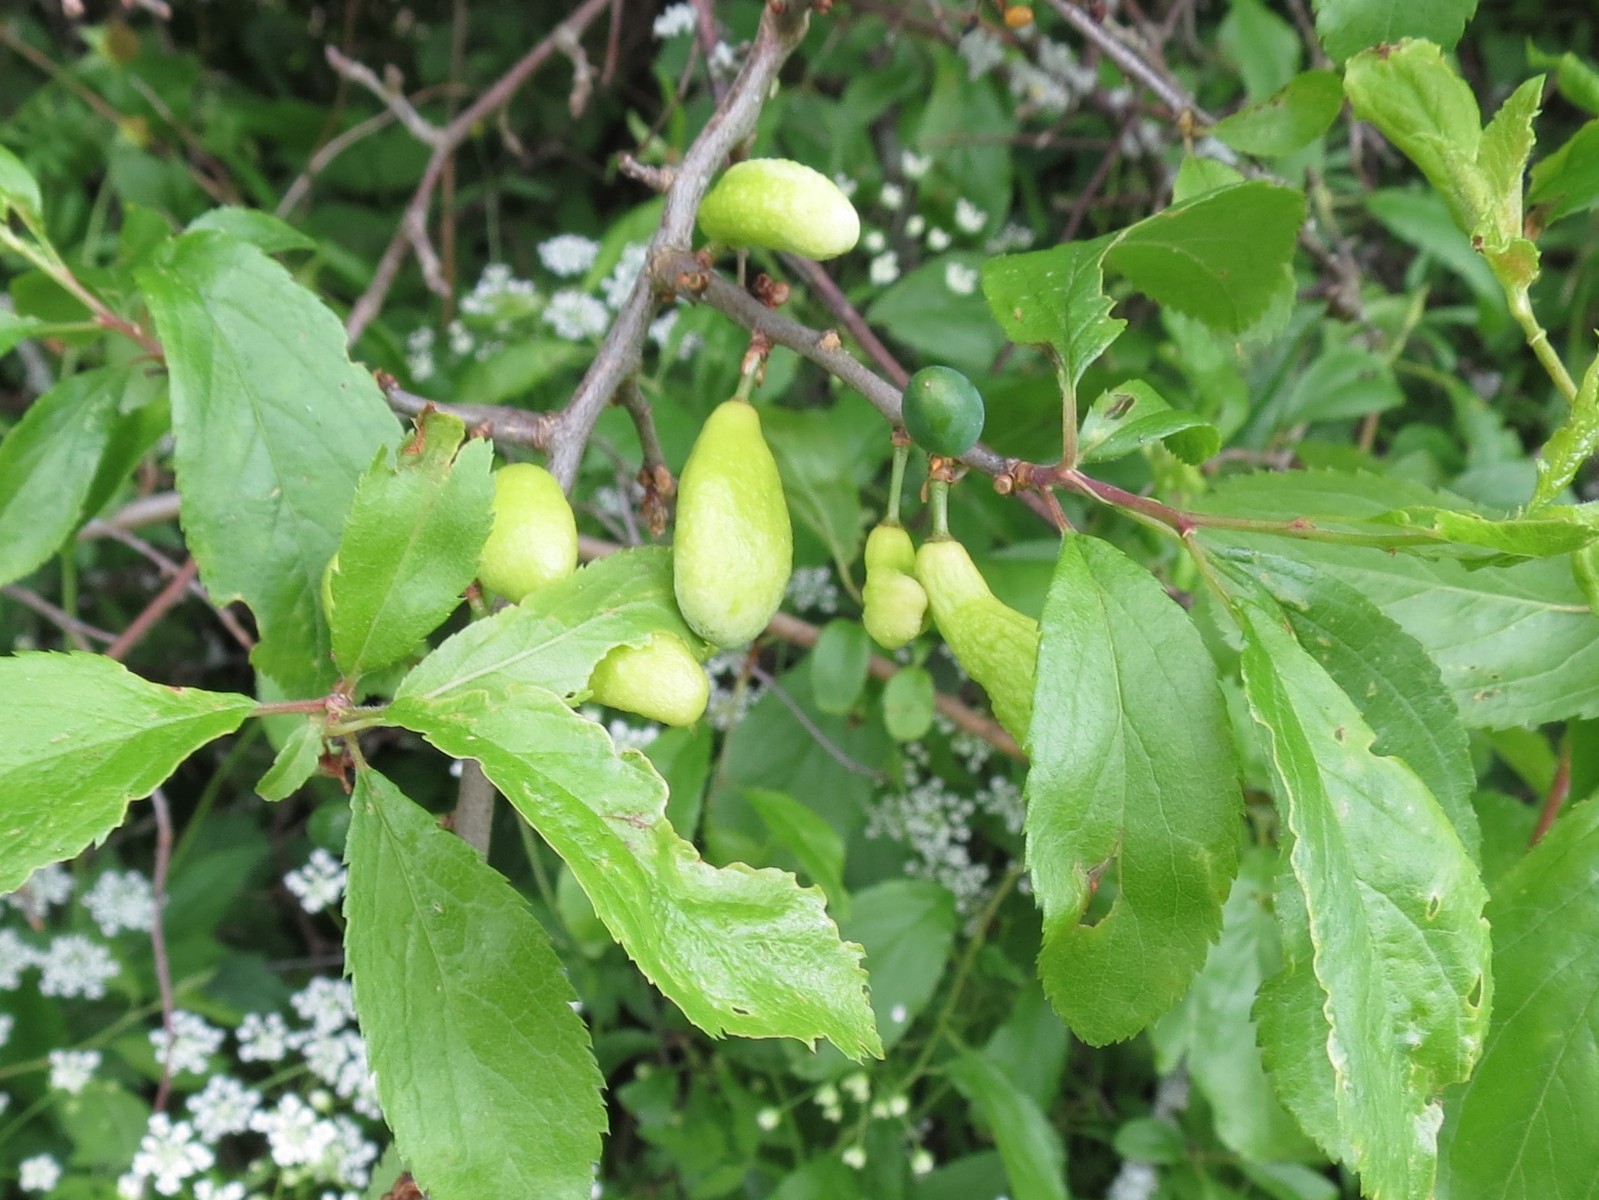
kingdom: Fungi
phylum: Ascomycota
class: Taphrinomycetes
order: Taphrinales
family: Taphrinaceae
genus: Taphrina
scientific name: Taphrina pruni
